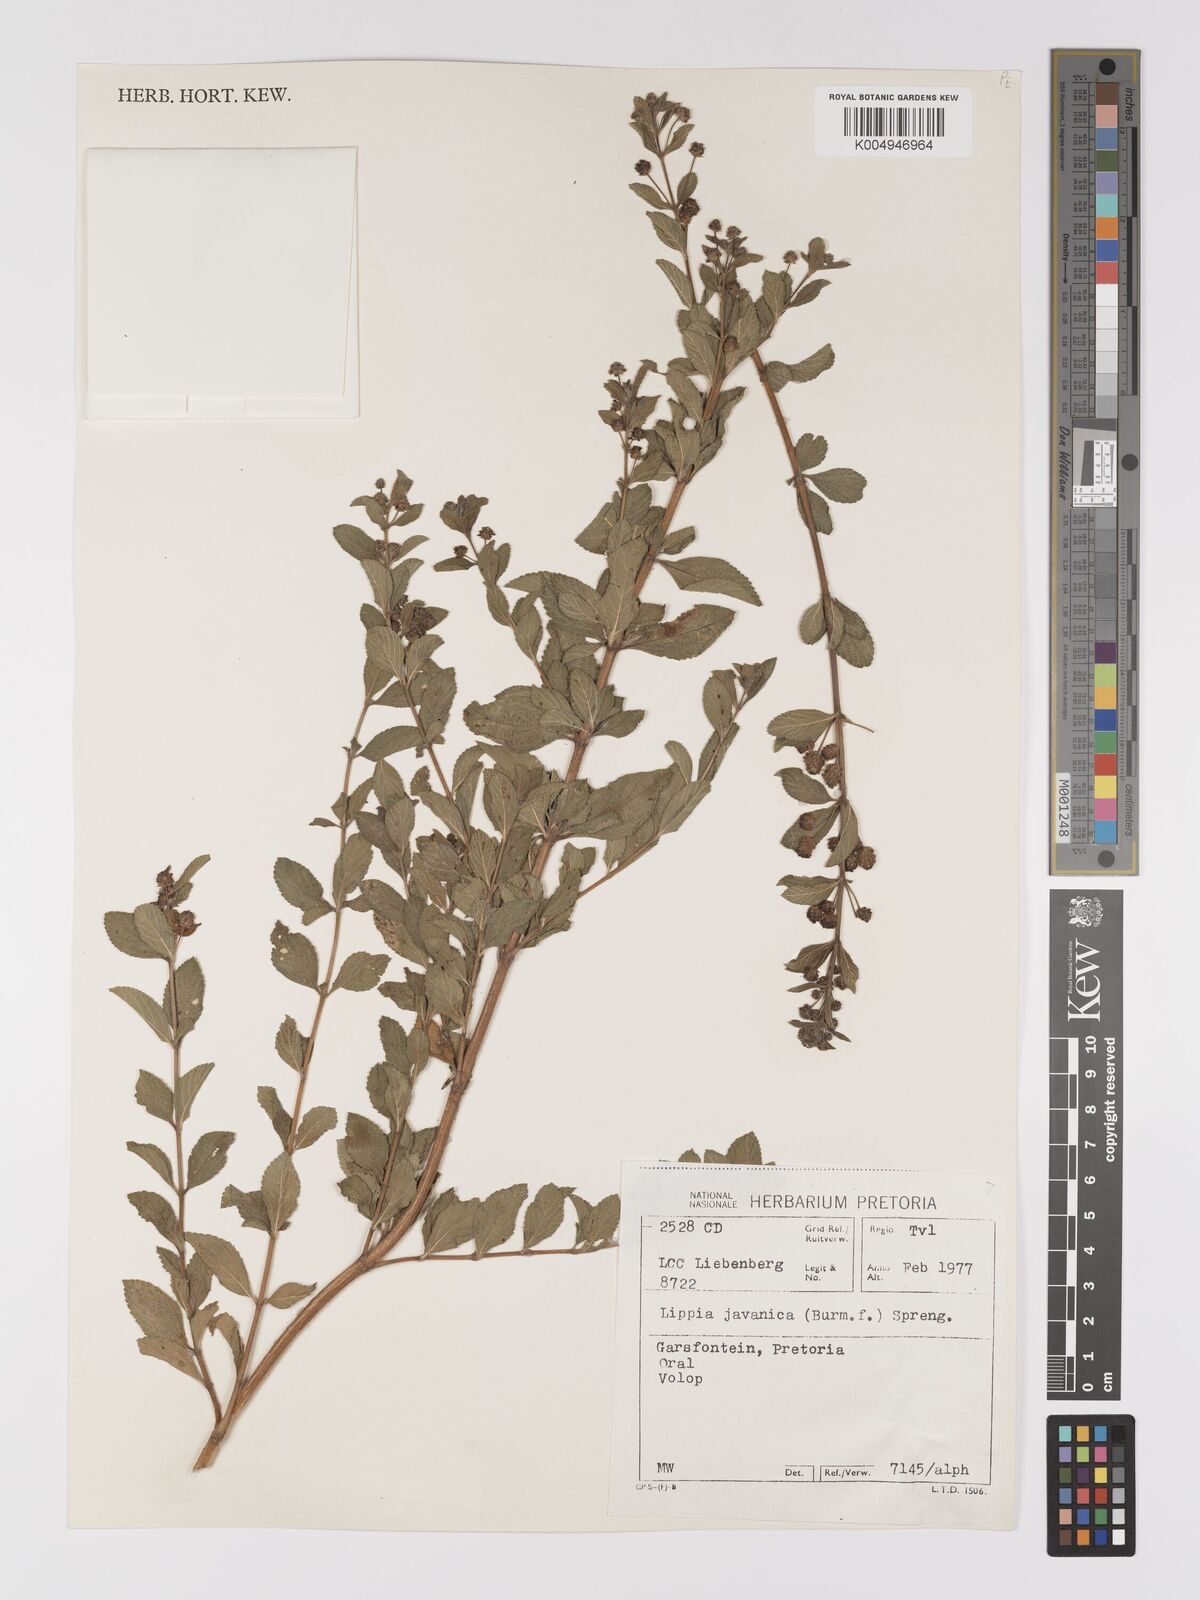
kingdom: Plantae
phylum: Tracheophyta
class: Magnoliopsida
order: Lamiales
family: Verbenaceae
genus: Lippia
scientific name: Lippia javanica
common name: Lemonbush
